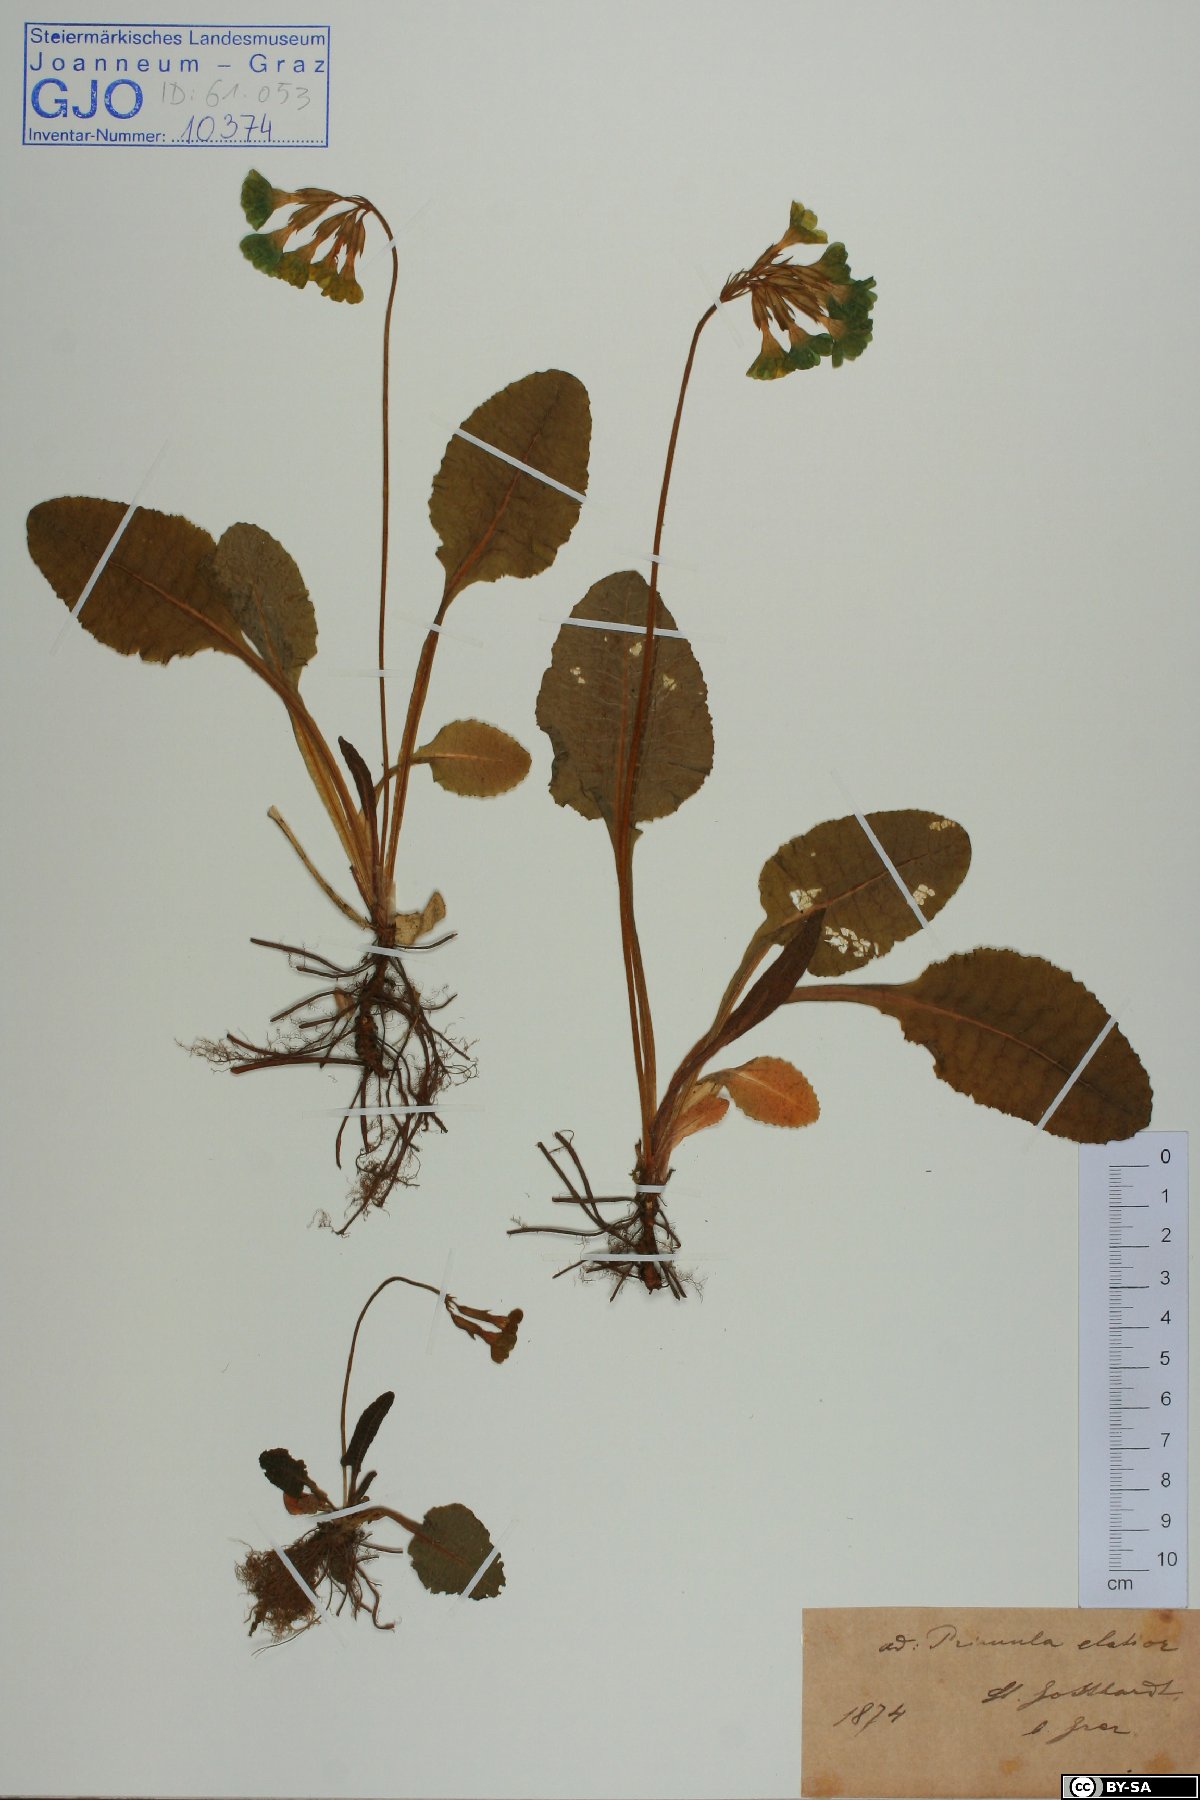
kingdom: Plantae
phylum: Tracheophyta
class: Magnoliopsida
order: Ericales
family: Primulaceae
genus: Primula
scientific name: Primula elatior
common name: Oxlip
